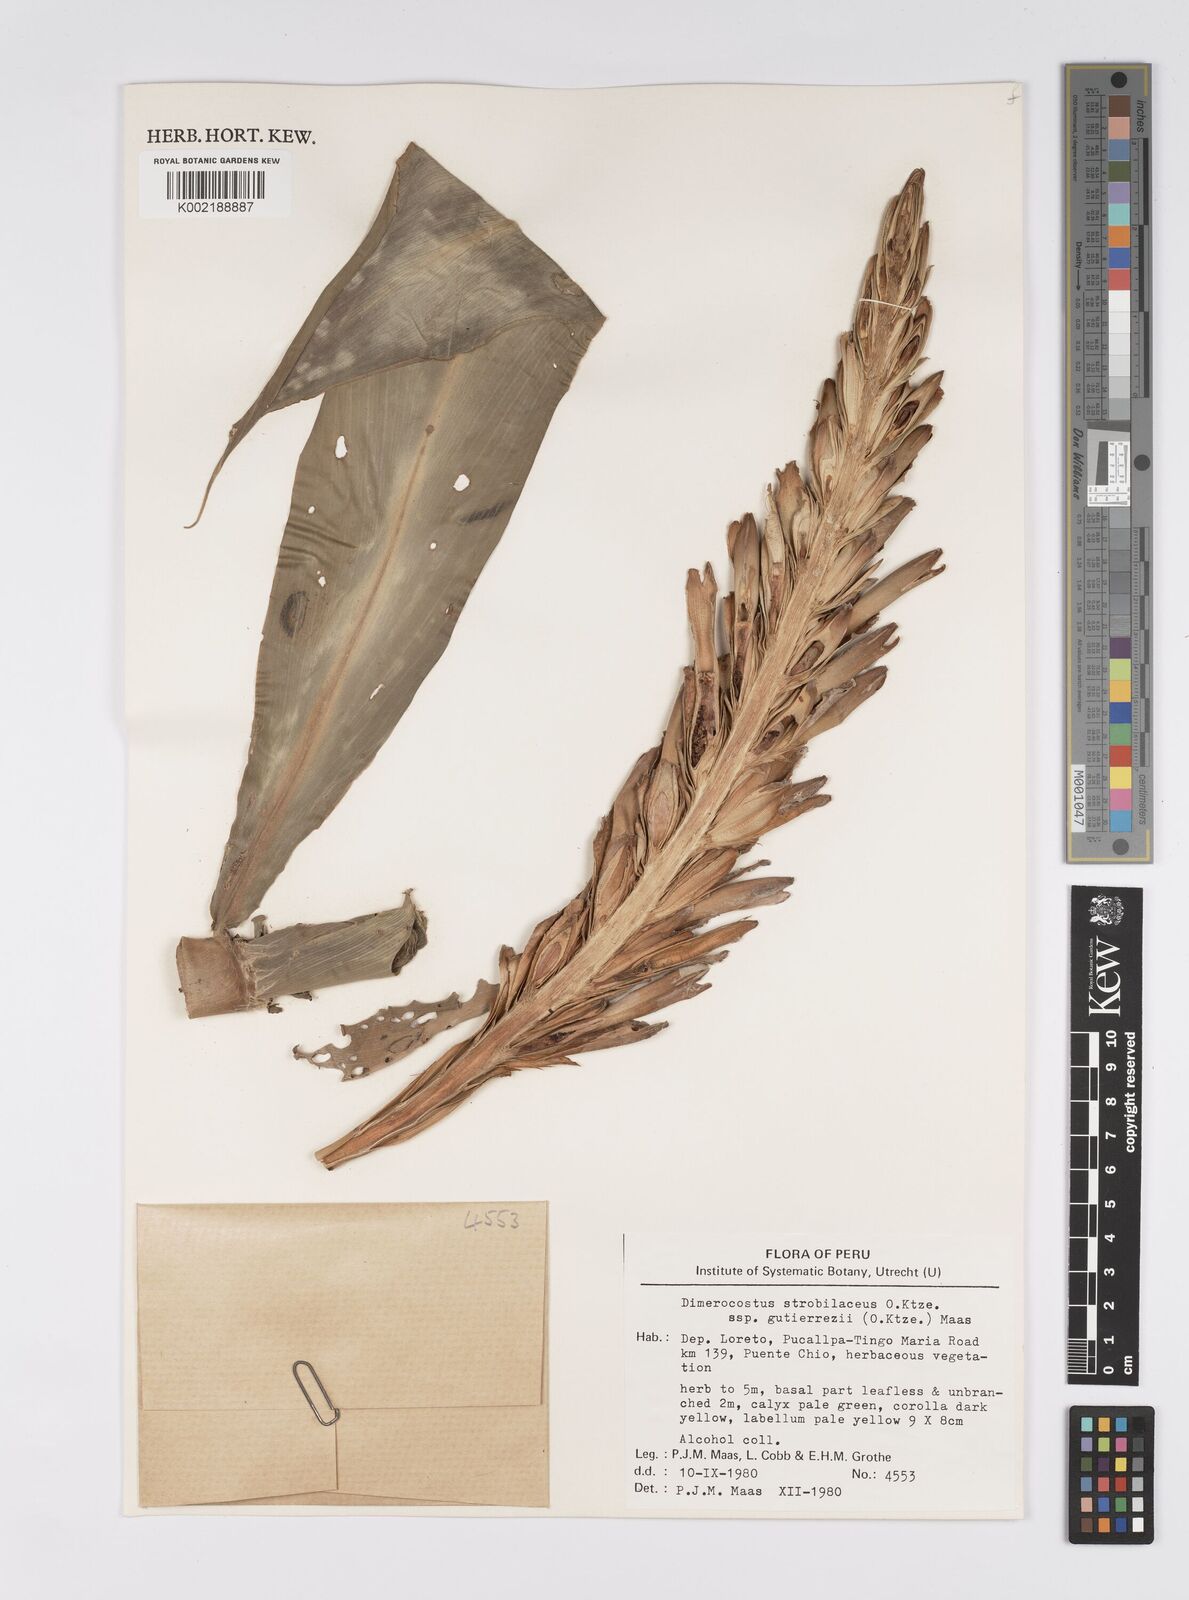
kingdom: Plantae
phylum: Tracheophyta
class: Liliopsida
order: Zingiberales
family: Costaceae
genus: Dimerocostus
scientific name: Dimerocostus strobilaceus
